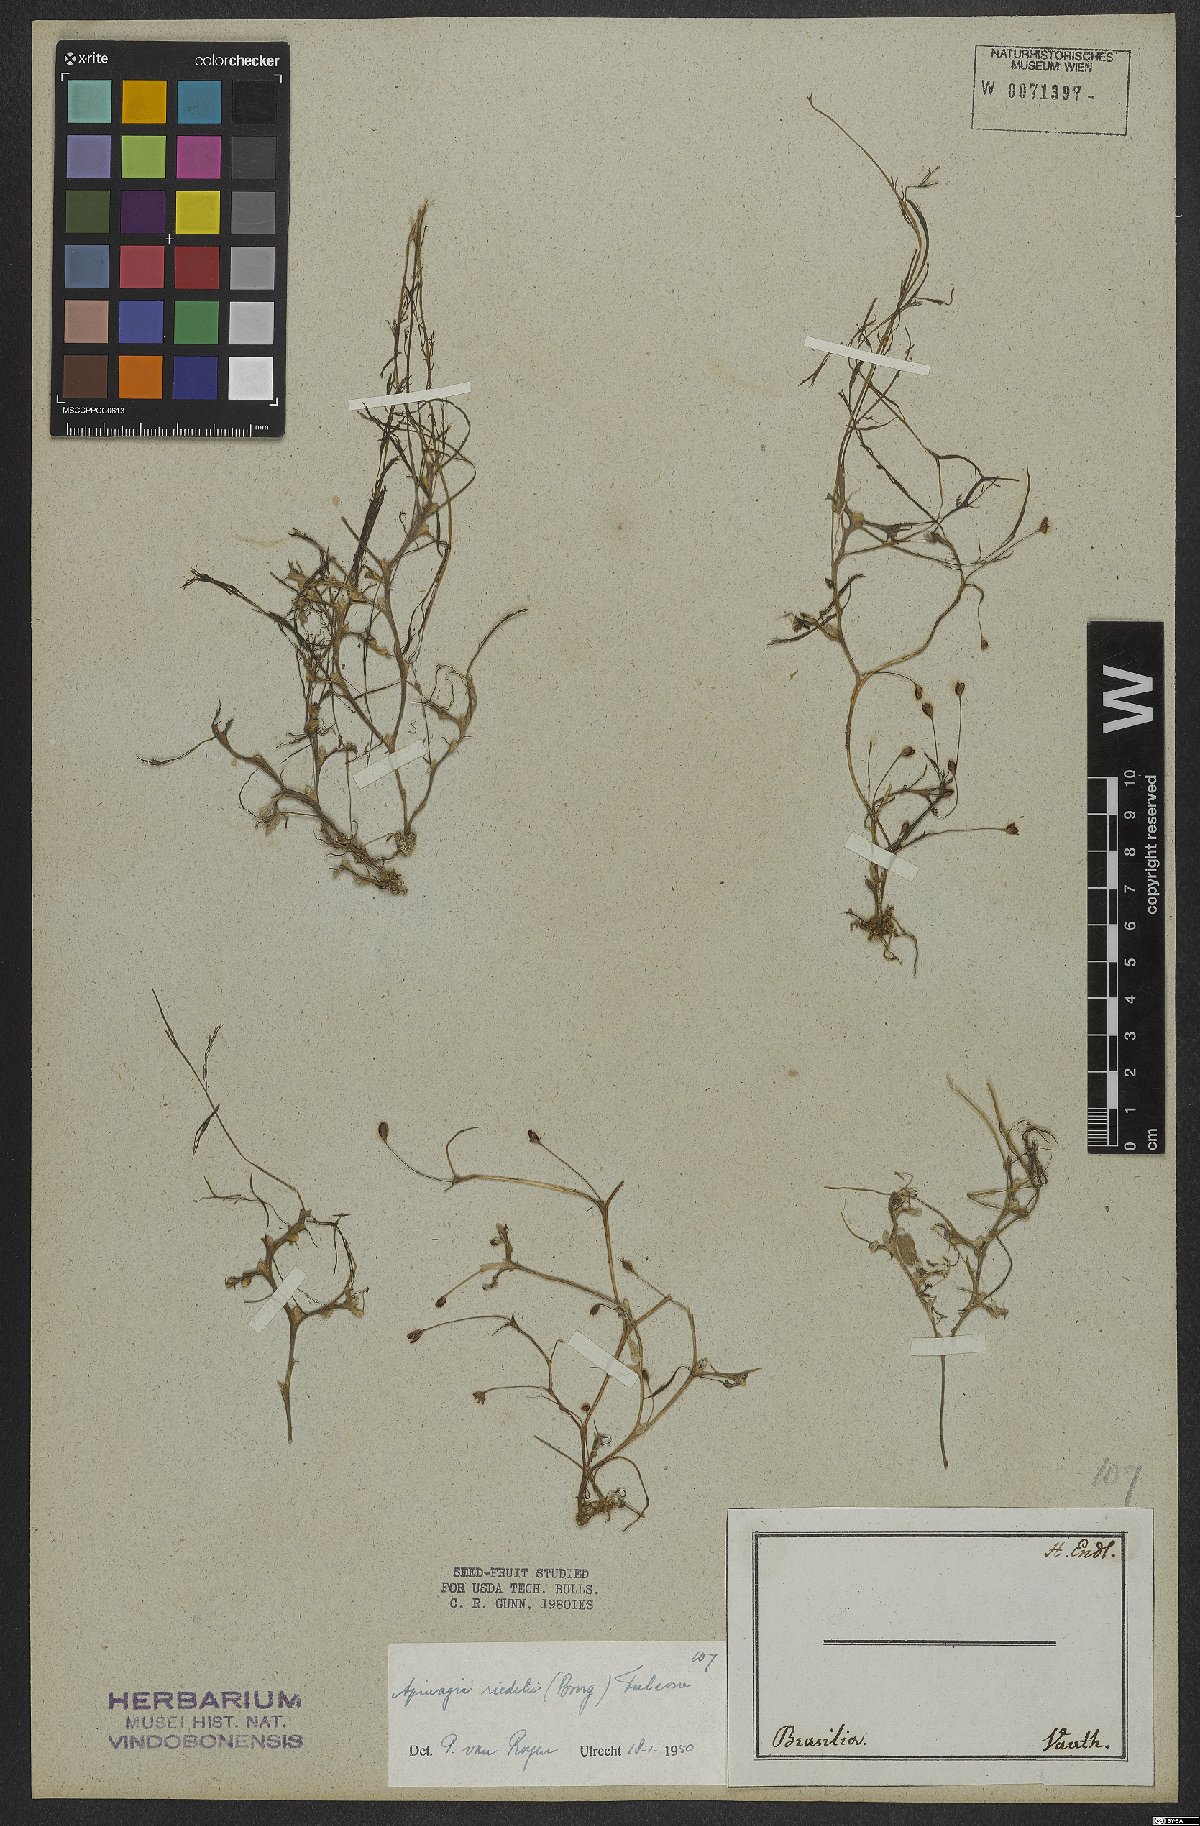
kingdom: Plantae
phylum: Tracheophyta
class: Magnoliopsida
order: Malpighiales
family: Podostemaceae
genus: Apinagia
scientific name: Apinagia riedelii
